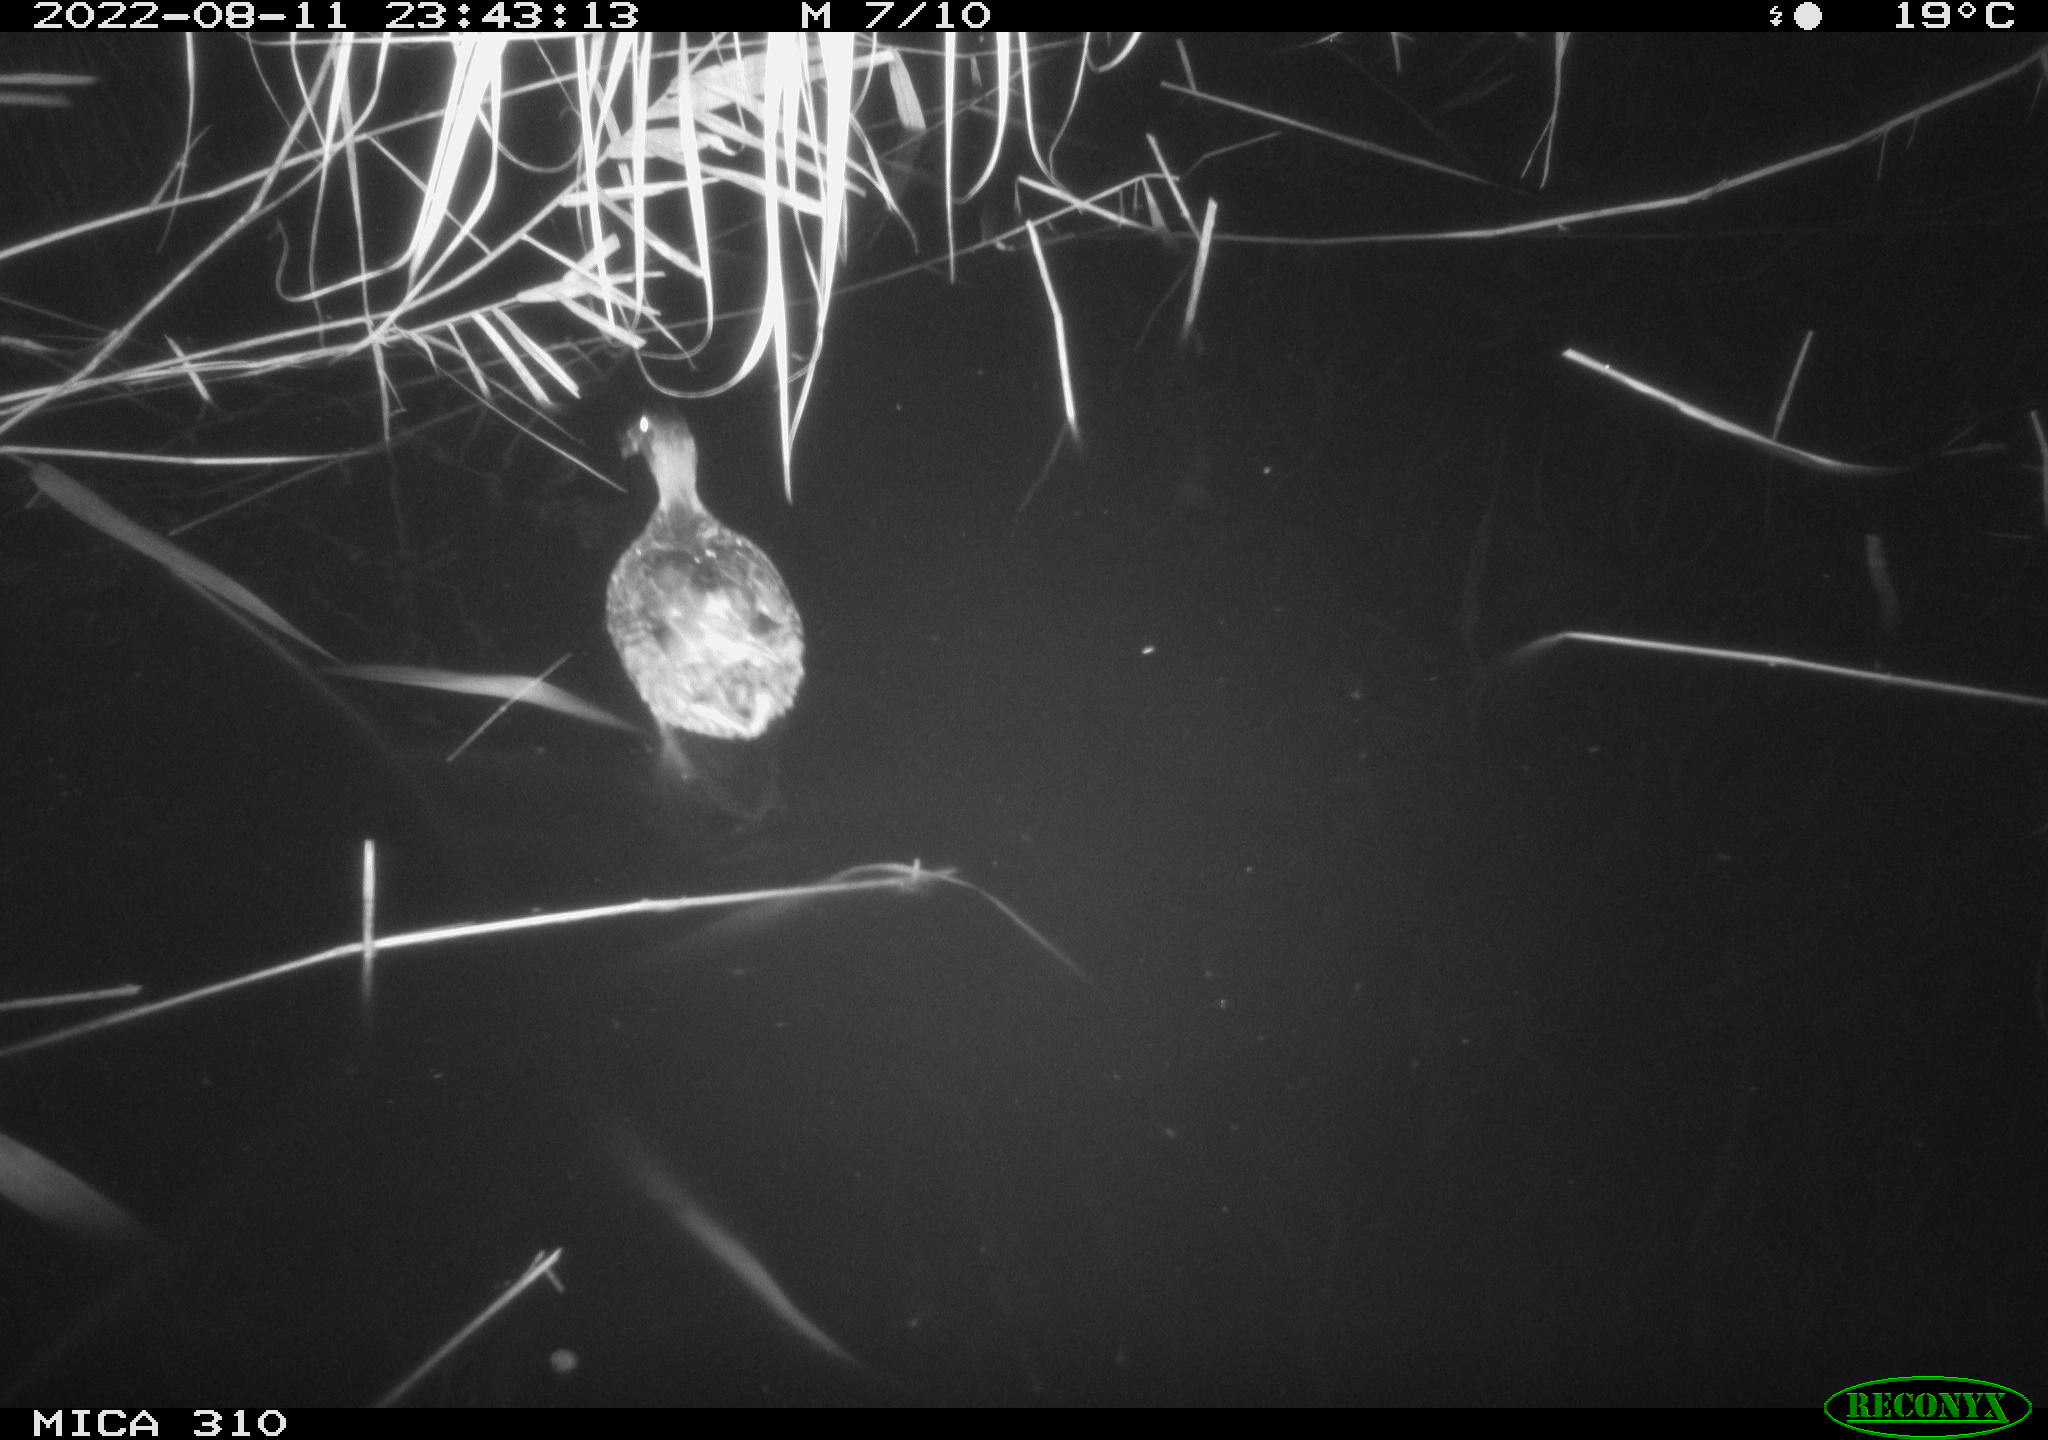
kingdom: Animalia
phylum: Chordata
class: Aves
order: Anseriformes
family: Anatidae
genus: Anas
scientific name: Anas platyrhynchos
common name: Mallard
